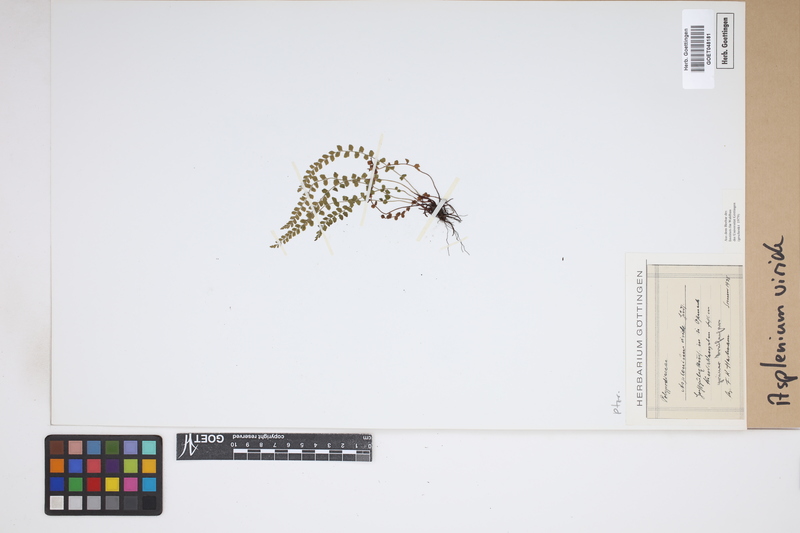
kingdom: Plantae
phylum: Tracheophyta
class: Polypodiopsida
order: Polypodiales
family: Aspleniaceae
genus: Asplenium
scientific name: Asplenium viride
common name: Green spleenwort
